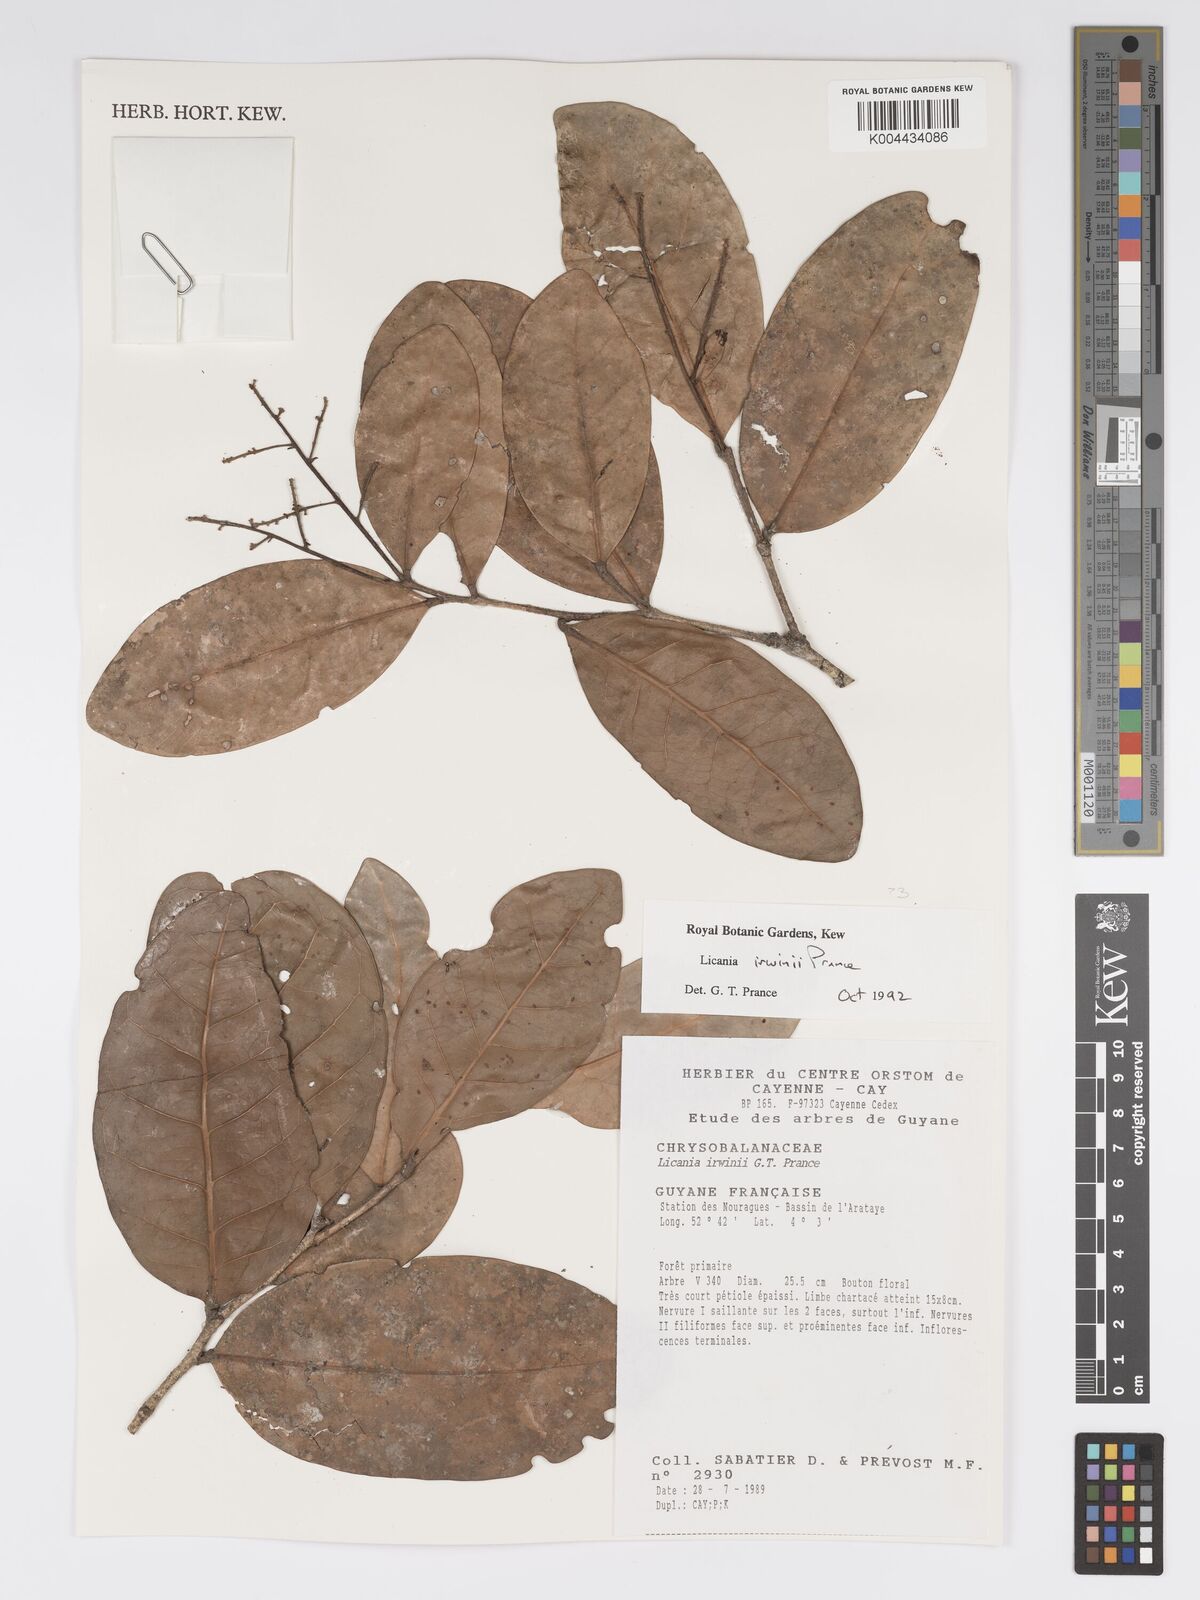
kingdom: Plantae
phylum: Tracheophyta
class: Magnoliopsida
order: Malpighiales
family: Chrysobalanaceae
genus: Licania
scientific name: Licania irwinii
